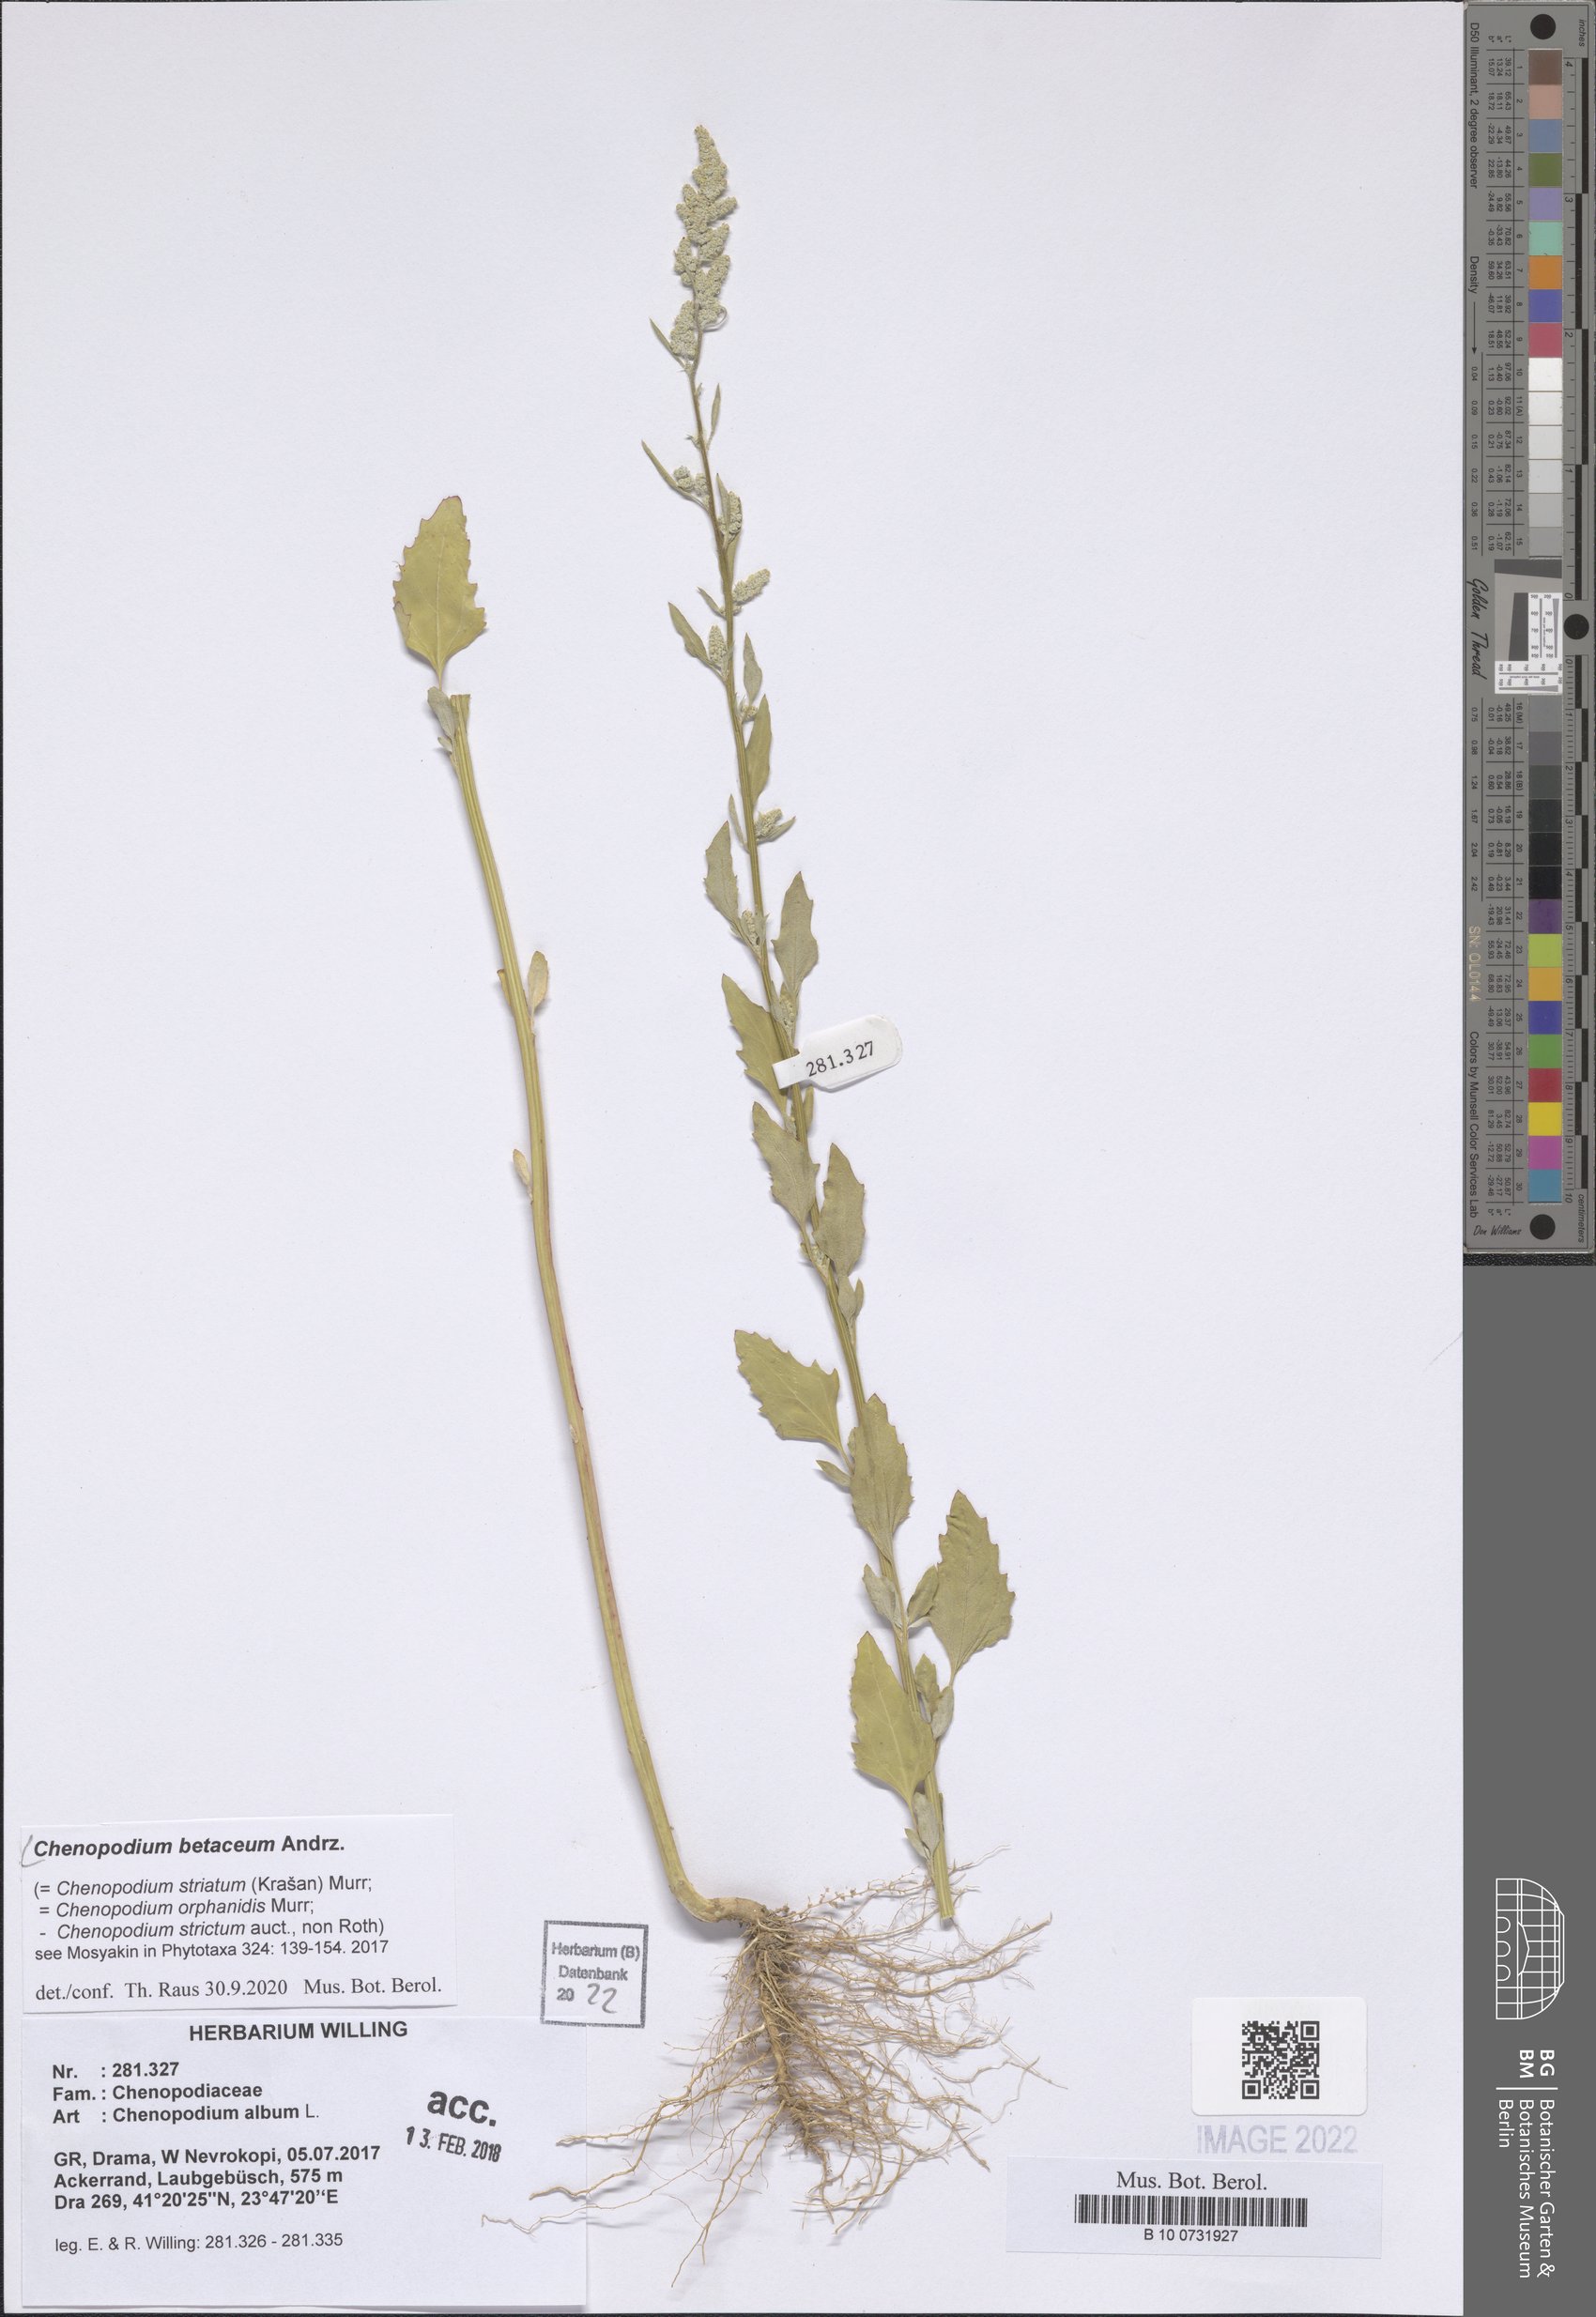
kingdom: Plantae
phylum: Tracheophyta
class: Magnoliopsida
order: Caryophyllales
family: Amaranthaceae
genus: Chenopodium
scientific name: Chenopodium betaceum
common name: Striped goosefoot
